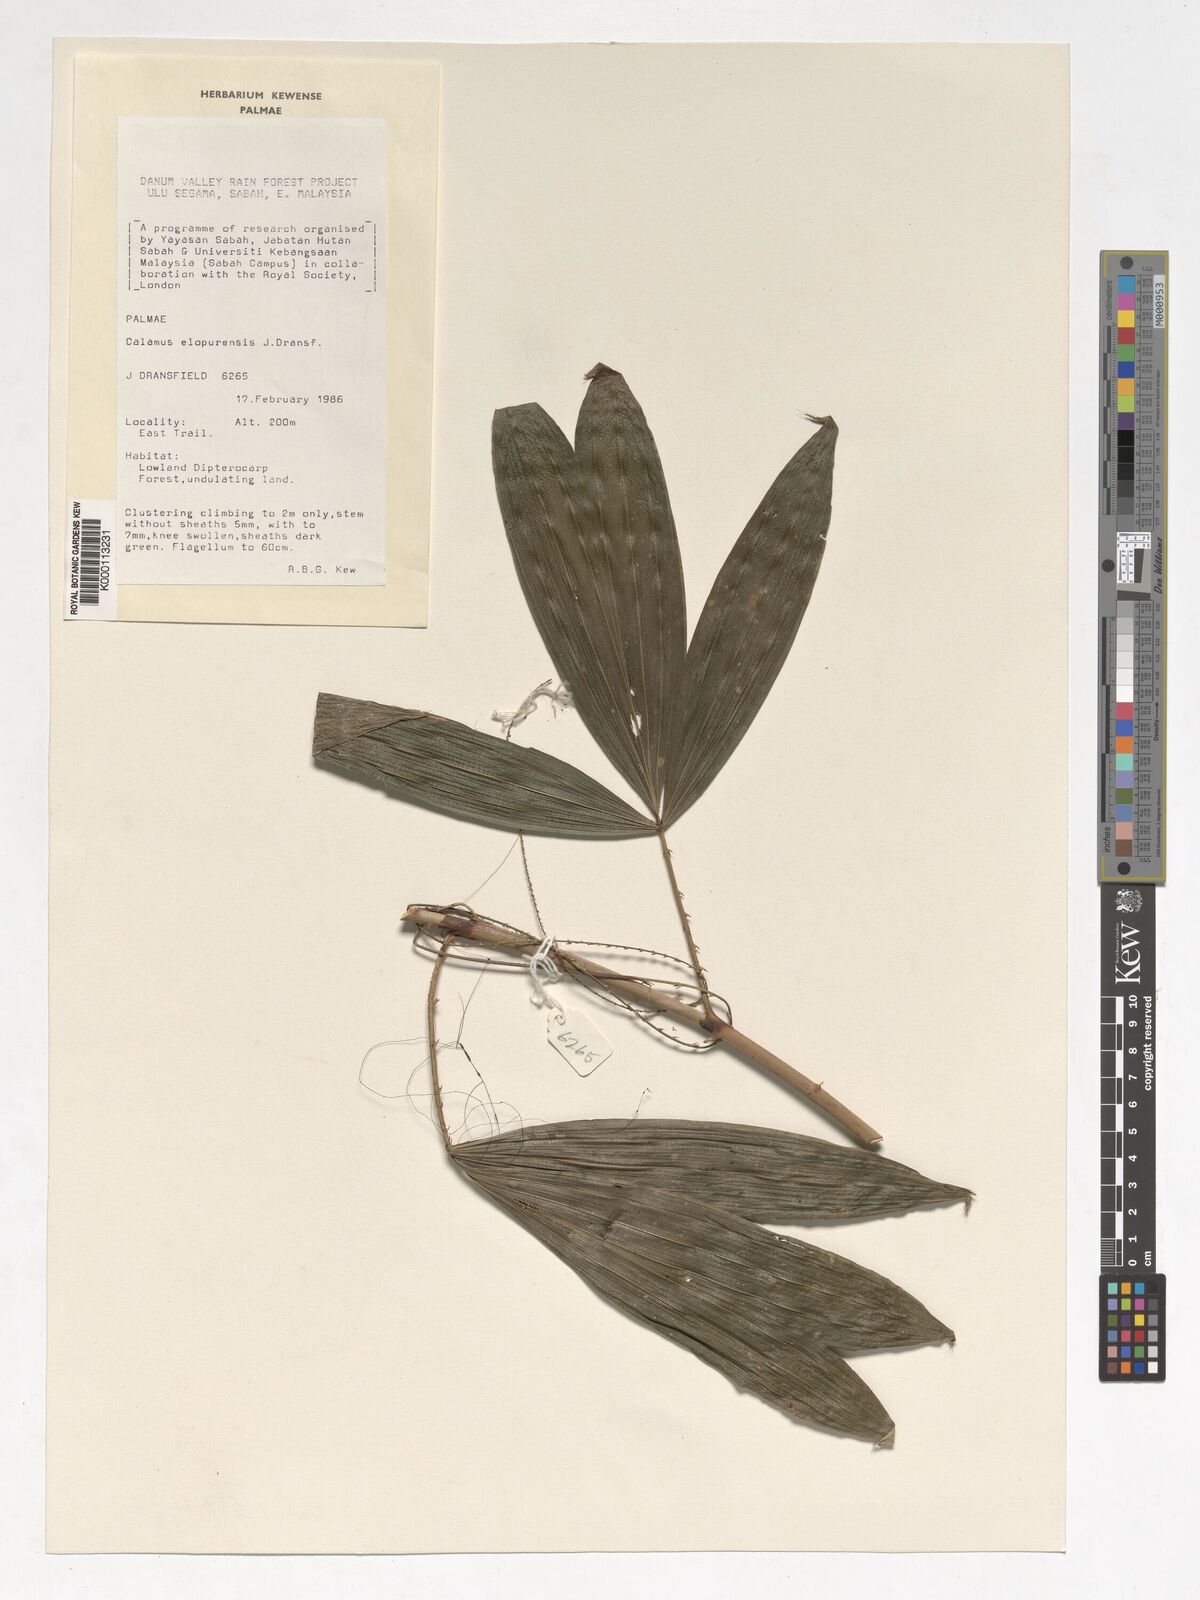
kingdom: Plantae
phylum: Tracheophyta
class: Liliopsida
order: Arecales
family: Arecaceae
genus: Calamus
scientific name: Calamus javensis
